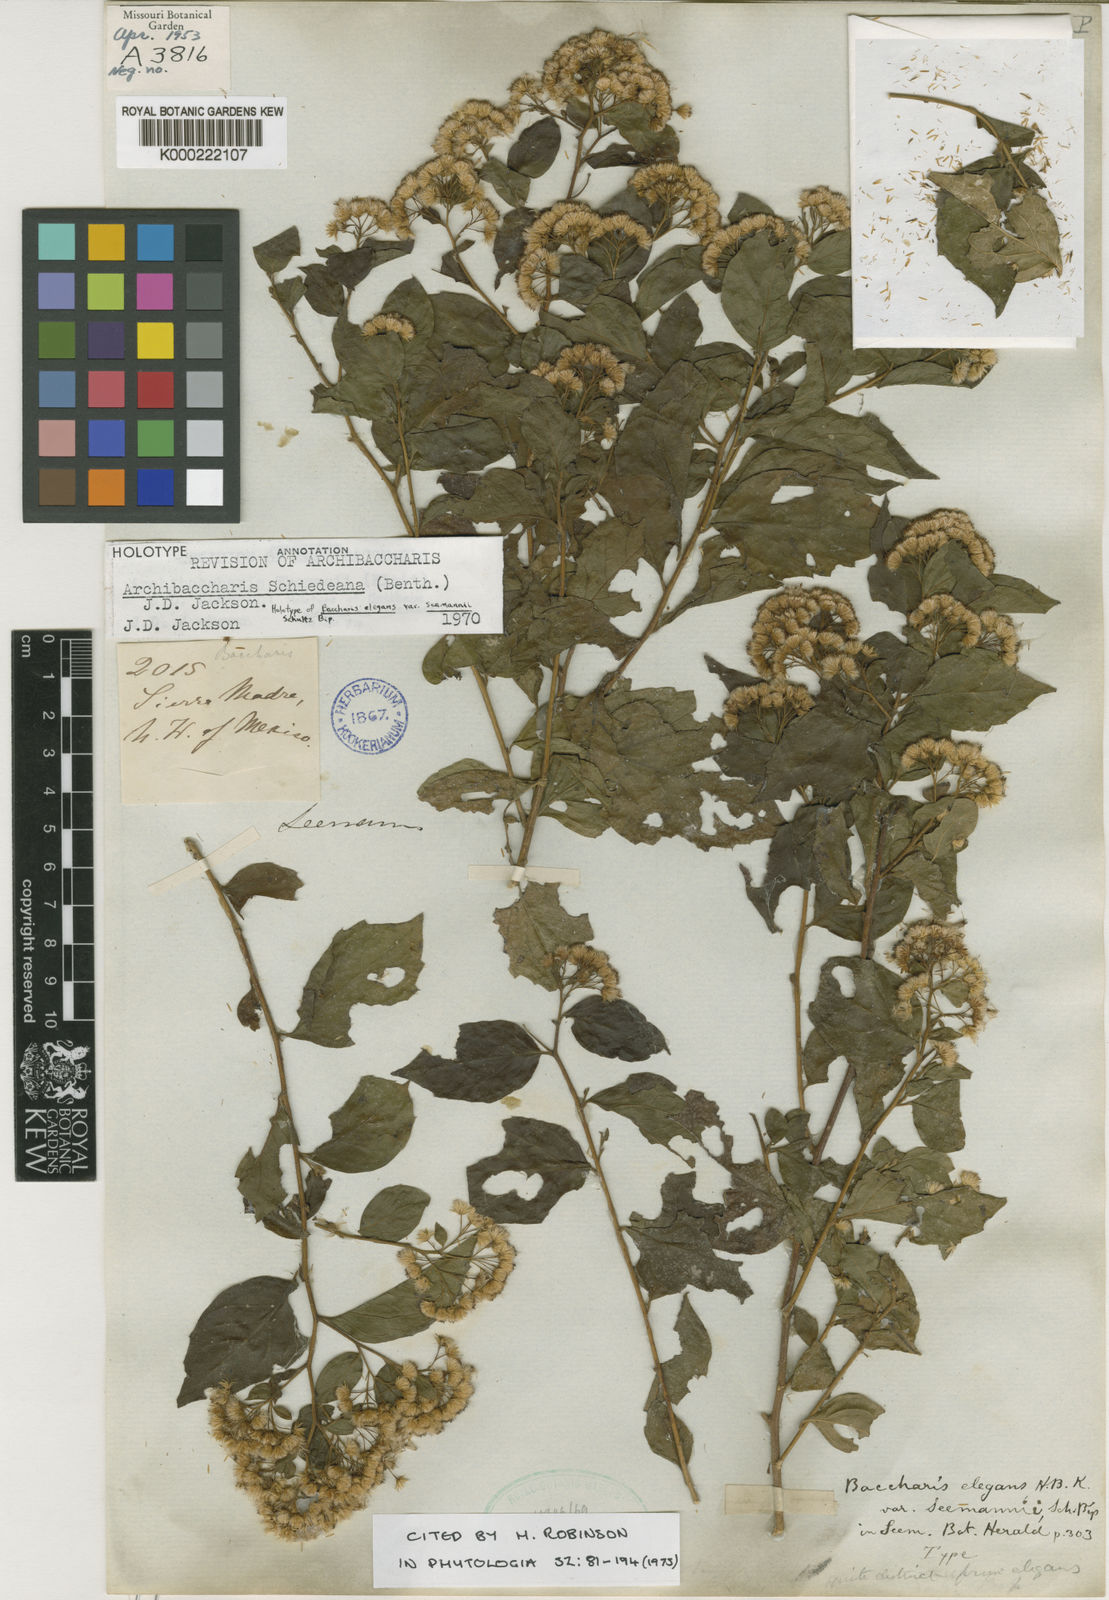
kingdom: Plantae
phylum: Tracheophyta
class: Magnoliopsida
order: Asterales
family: Asteraceae
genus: Baccharis
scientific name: Baccharis
